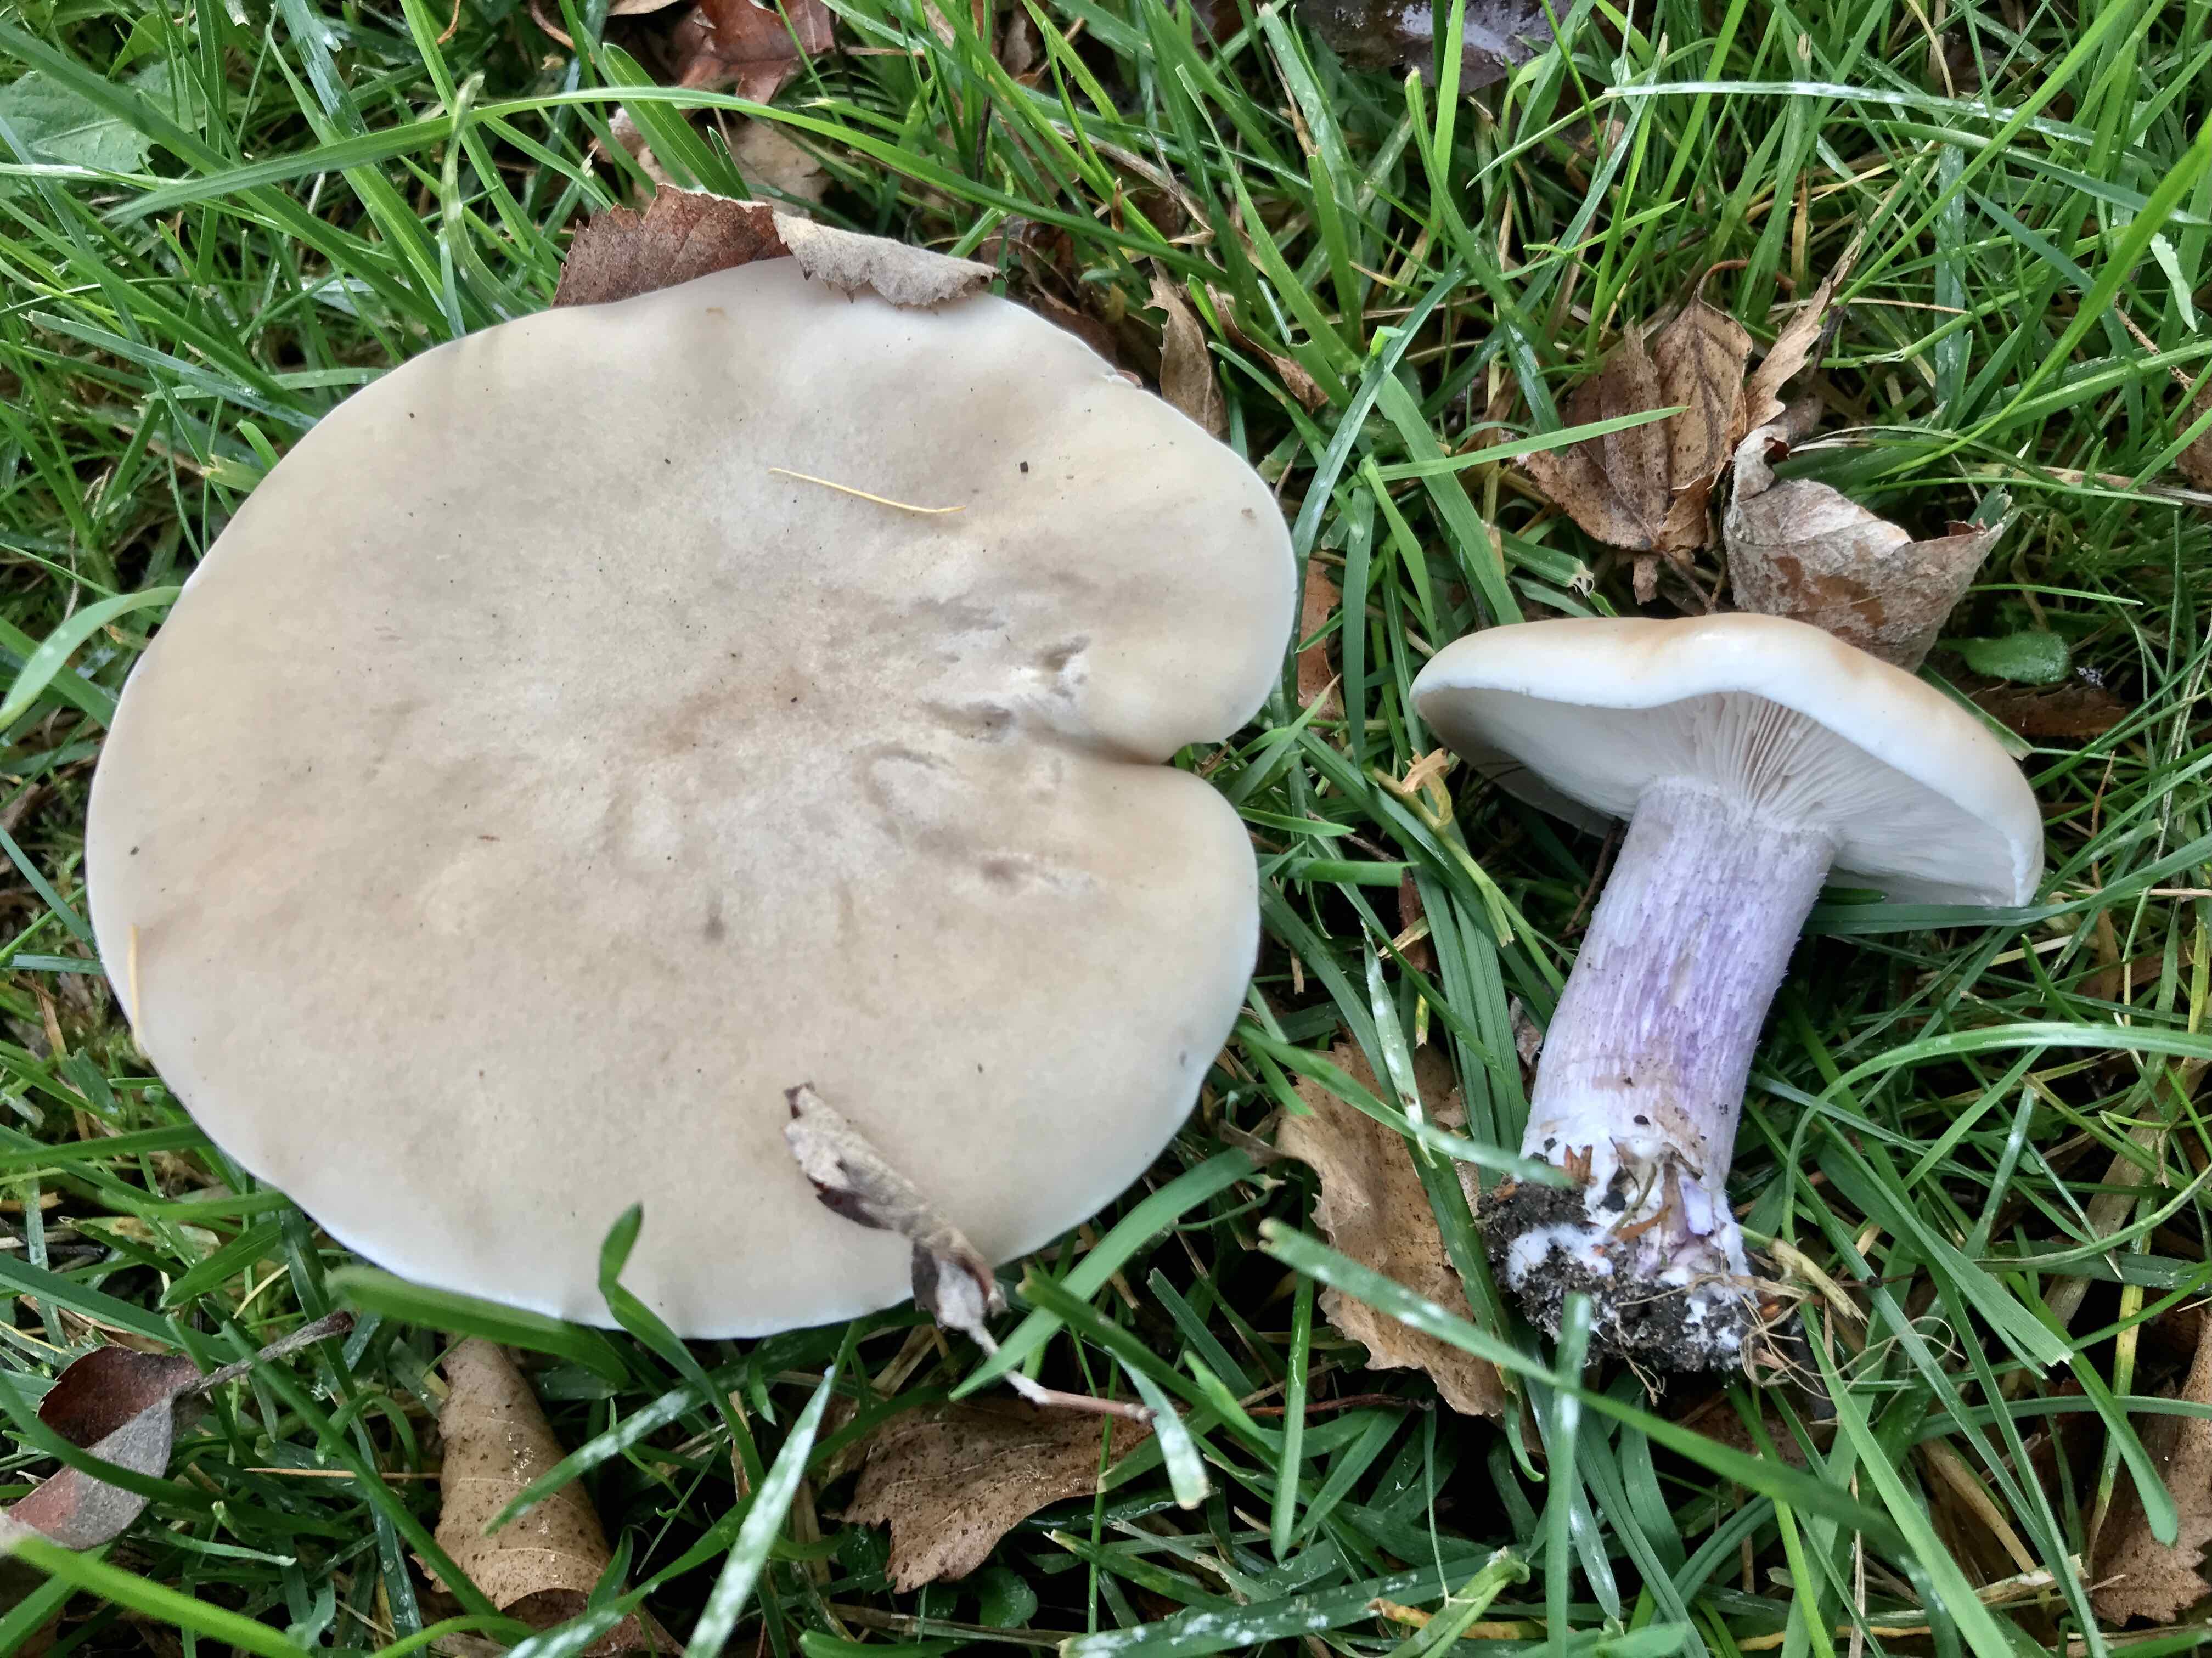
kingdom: Fungi
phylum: Basidiomycota
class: Agaricomycetes
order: Agaricales
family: Tricholomataceae
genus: Lepista
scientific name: Lepista personata
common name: bleg hekseringshat
